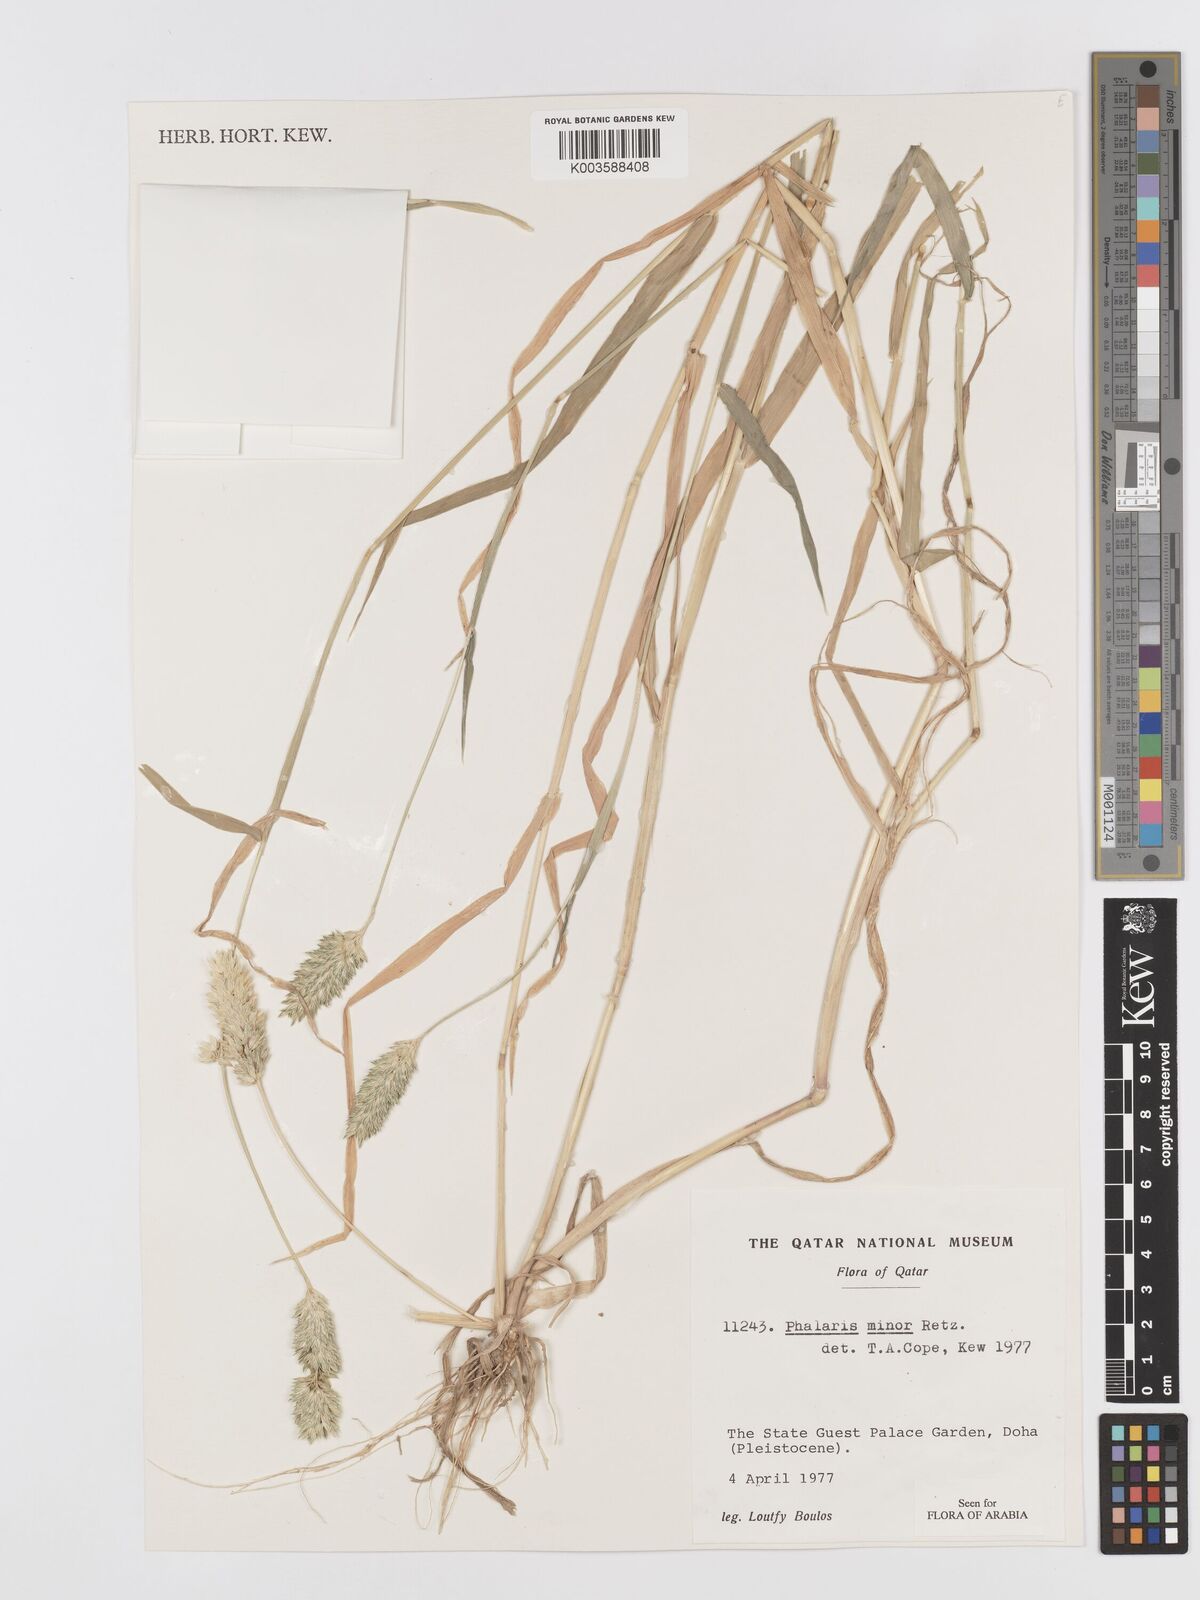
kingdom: Plantae
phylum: Tracheophyta
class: Liliopsida
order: Poales
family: Poaceae
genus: Phalaris
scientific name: Phalaris minor
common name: Littleseed canarygrass
